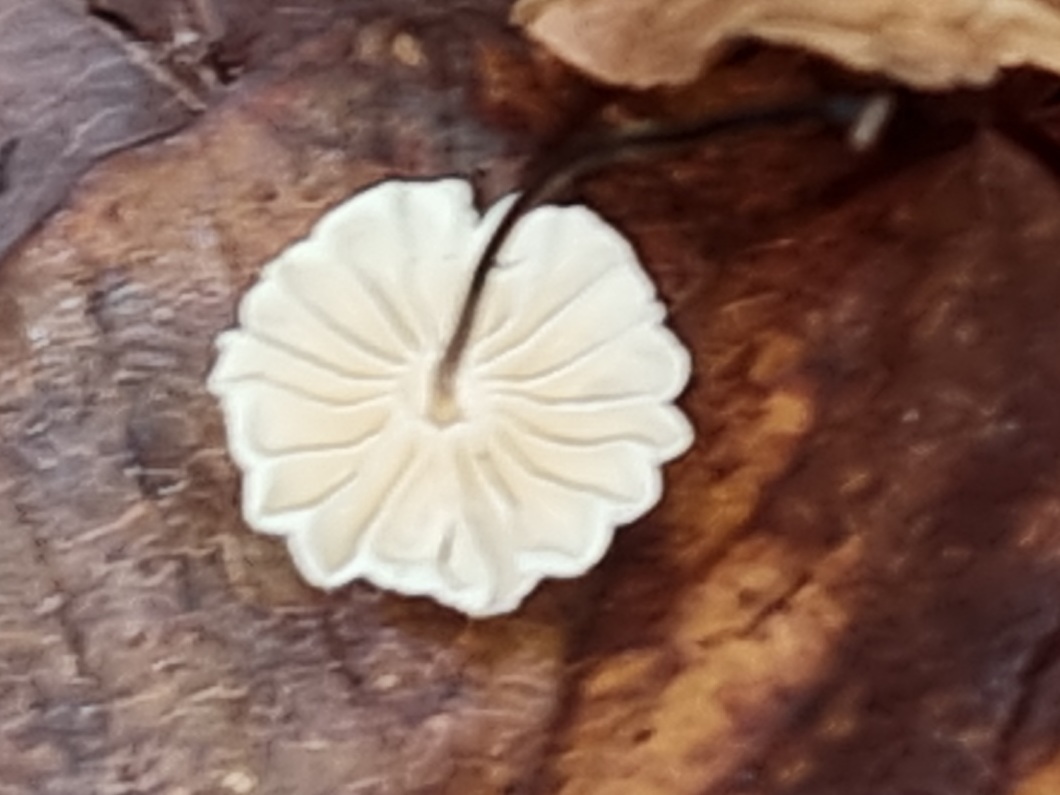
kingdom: Fungi
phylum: Basidiomycota
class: Agaricomycetes
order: Agaricales
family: Marasmiaceae
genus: Marasmius
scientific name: Marasmius rotula
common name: hjul-bruskhat
